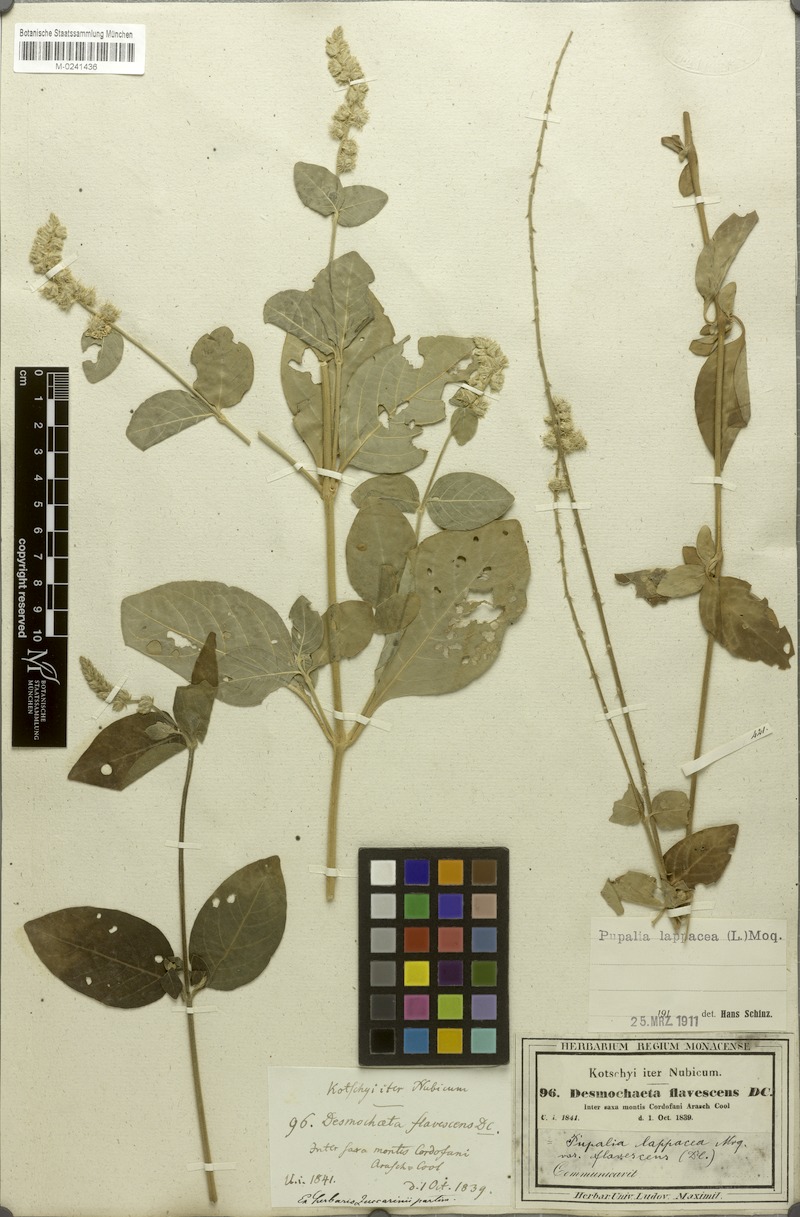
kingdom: Plantae
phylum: Tracheophyta
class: Magnoliopsida
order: Caryophyllales
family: Amaranthaceae
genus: Pupalia
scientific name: Pupalia lappacea
